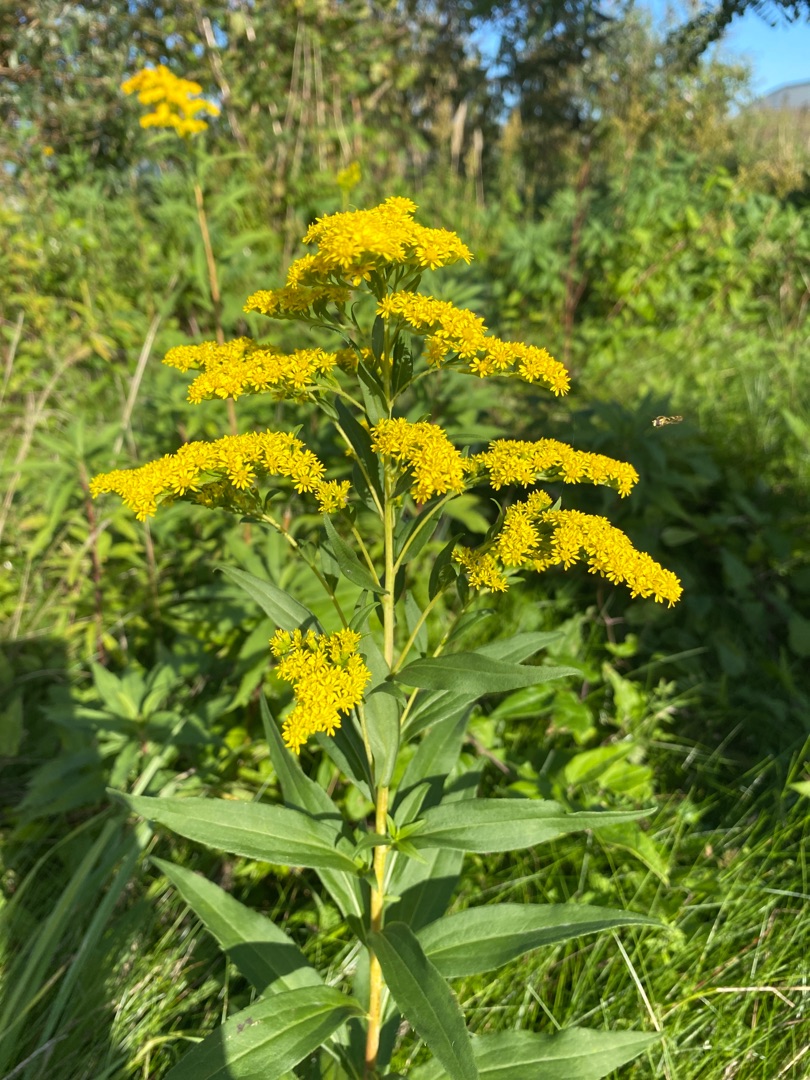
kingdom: Plantae
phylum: Tracheophyta
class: Magnoliopsida
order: Asterales
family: Asteraceae
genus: Solidago
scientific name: Solidago gigantea
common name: Sildig gyldenris
